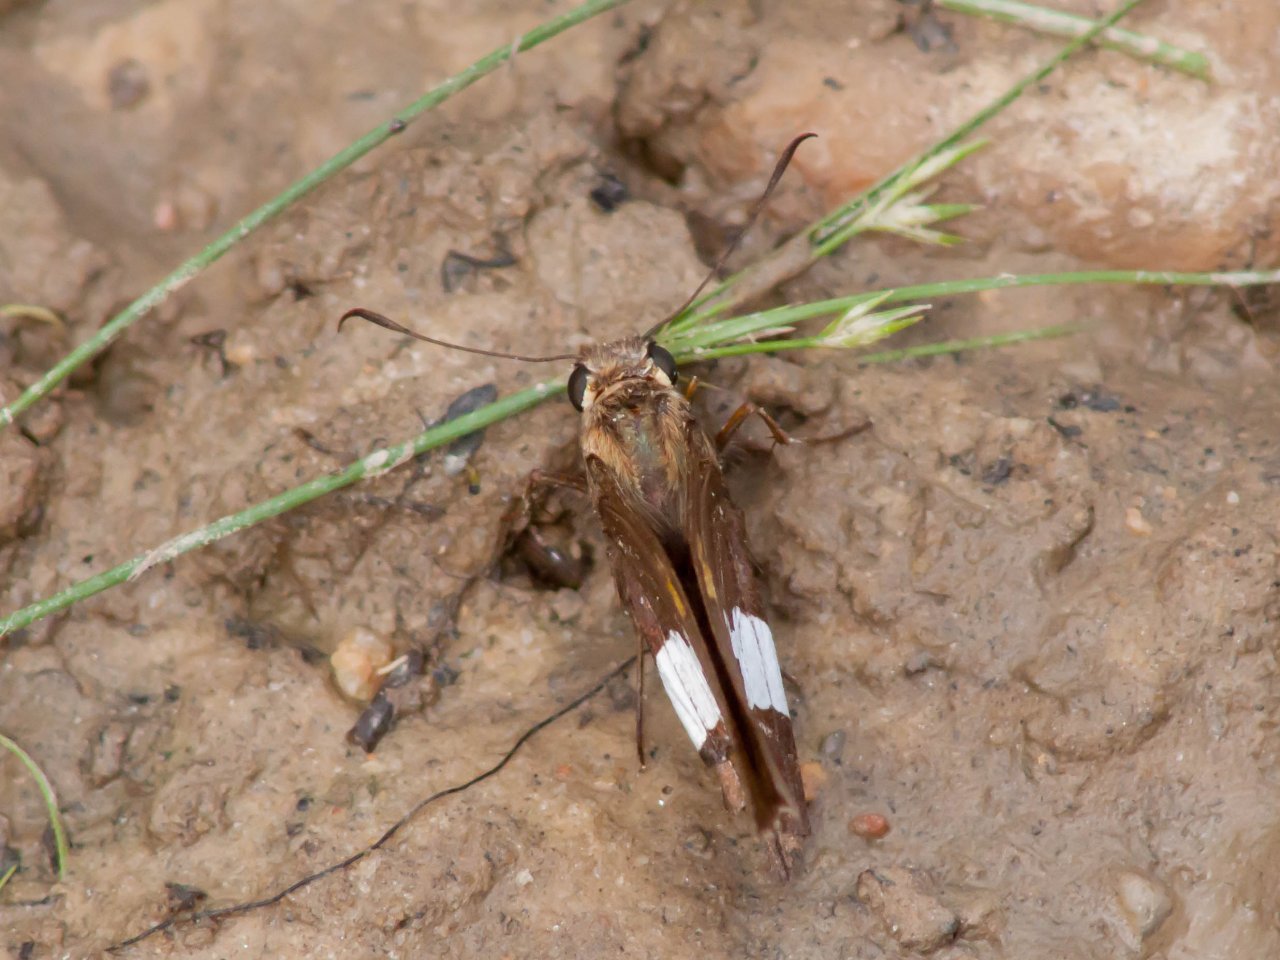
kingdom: Animalia
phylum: Arthropoda
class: Insecta
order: Lepidoptera
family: Hesperiidae
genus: Epargyreus
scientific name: Epargyreus clarus
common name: Silver-spotted Skipper
